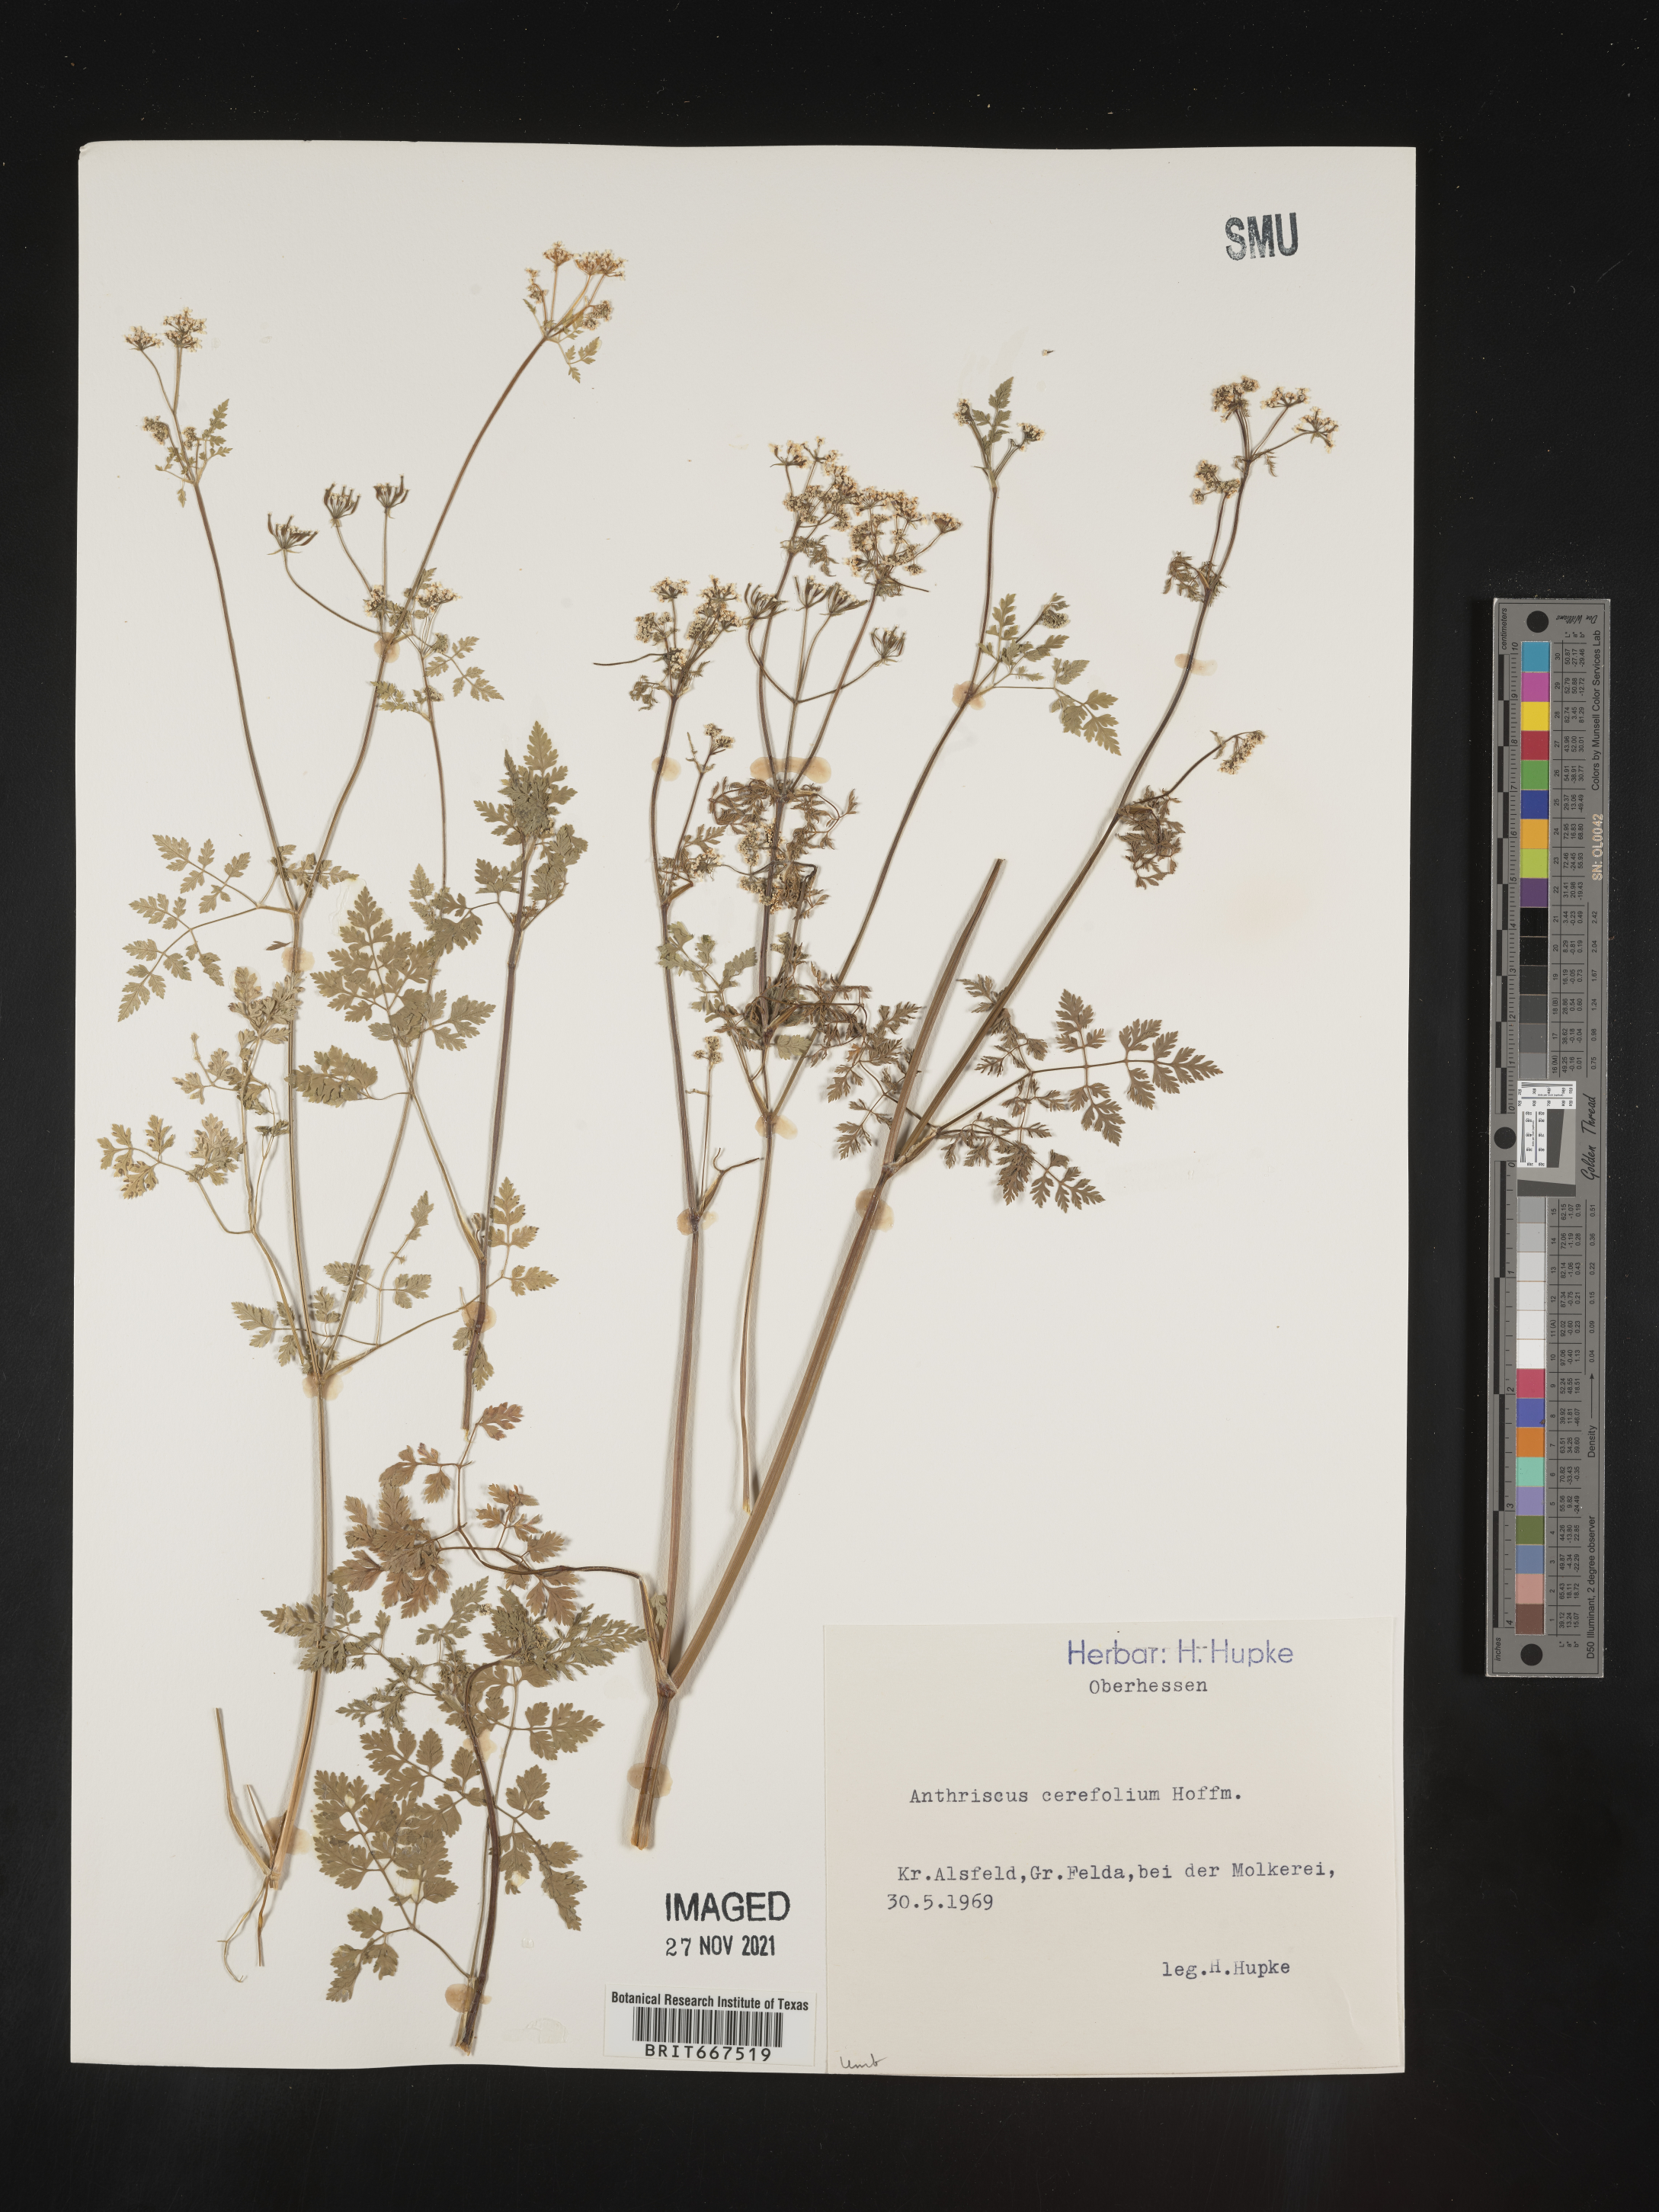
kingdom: Plantae
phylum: Tracheophyta
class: Magnoliopsida
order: Apiales
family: Apiaceae
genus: Anthriscus
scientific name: Anthriscus
